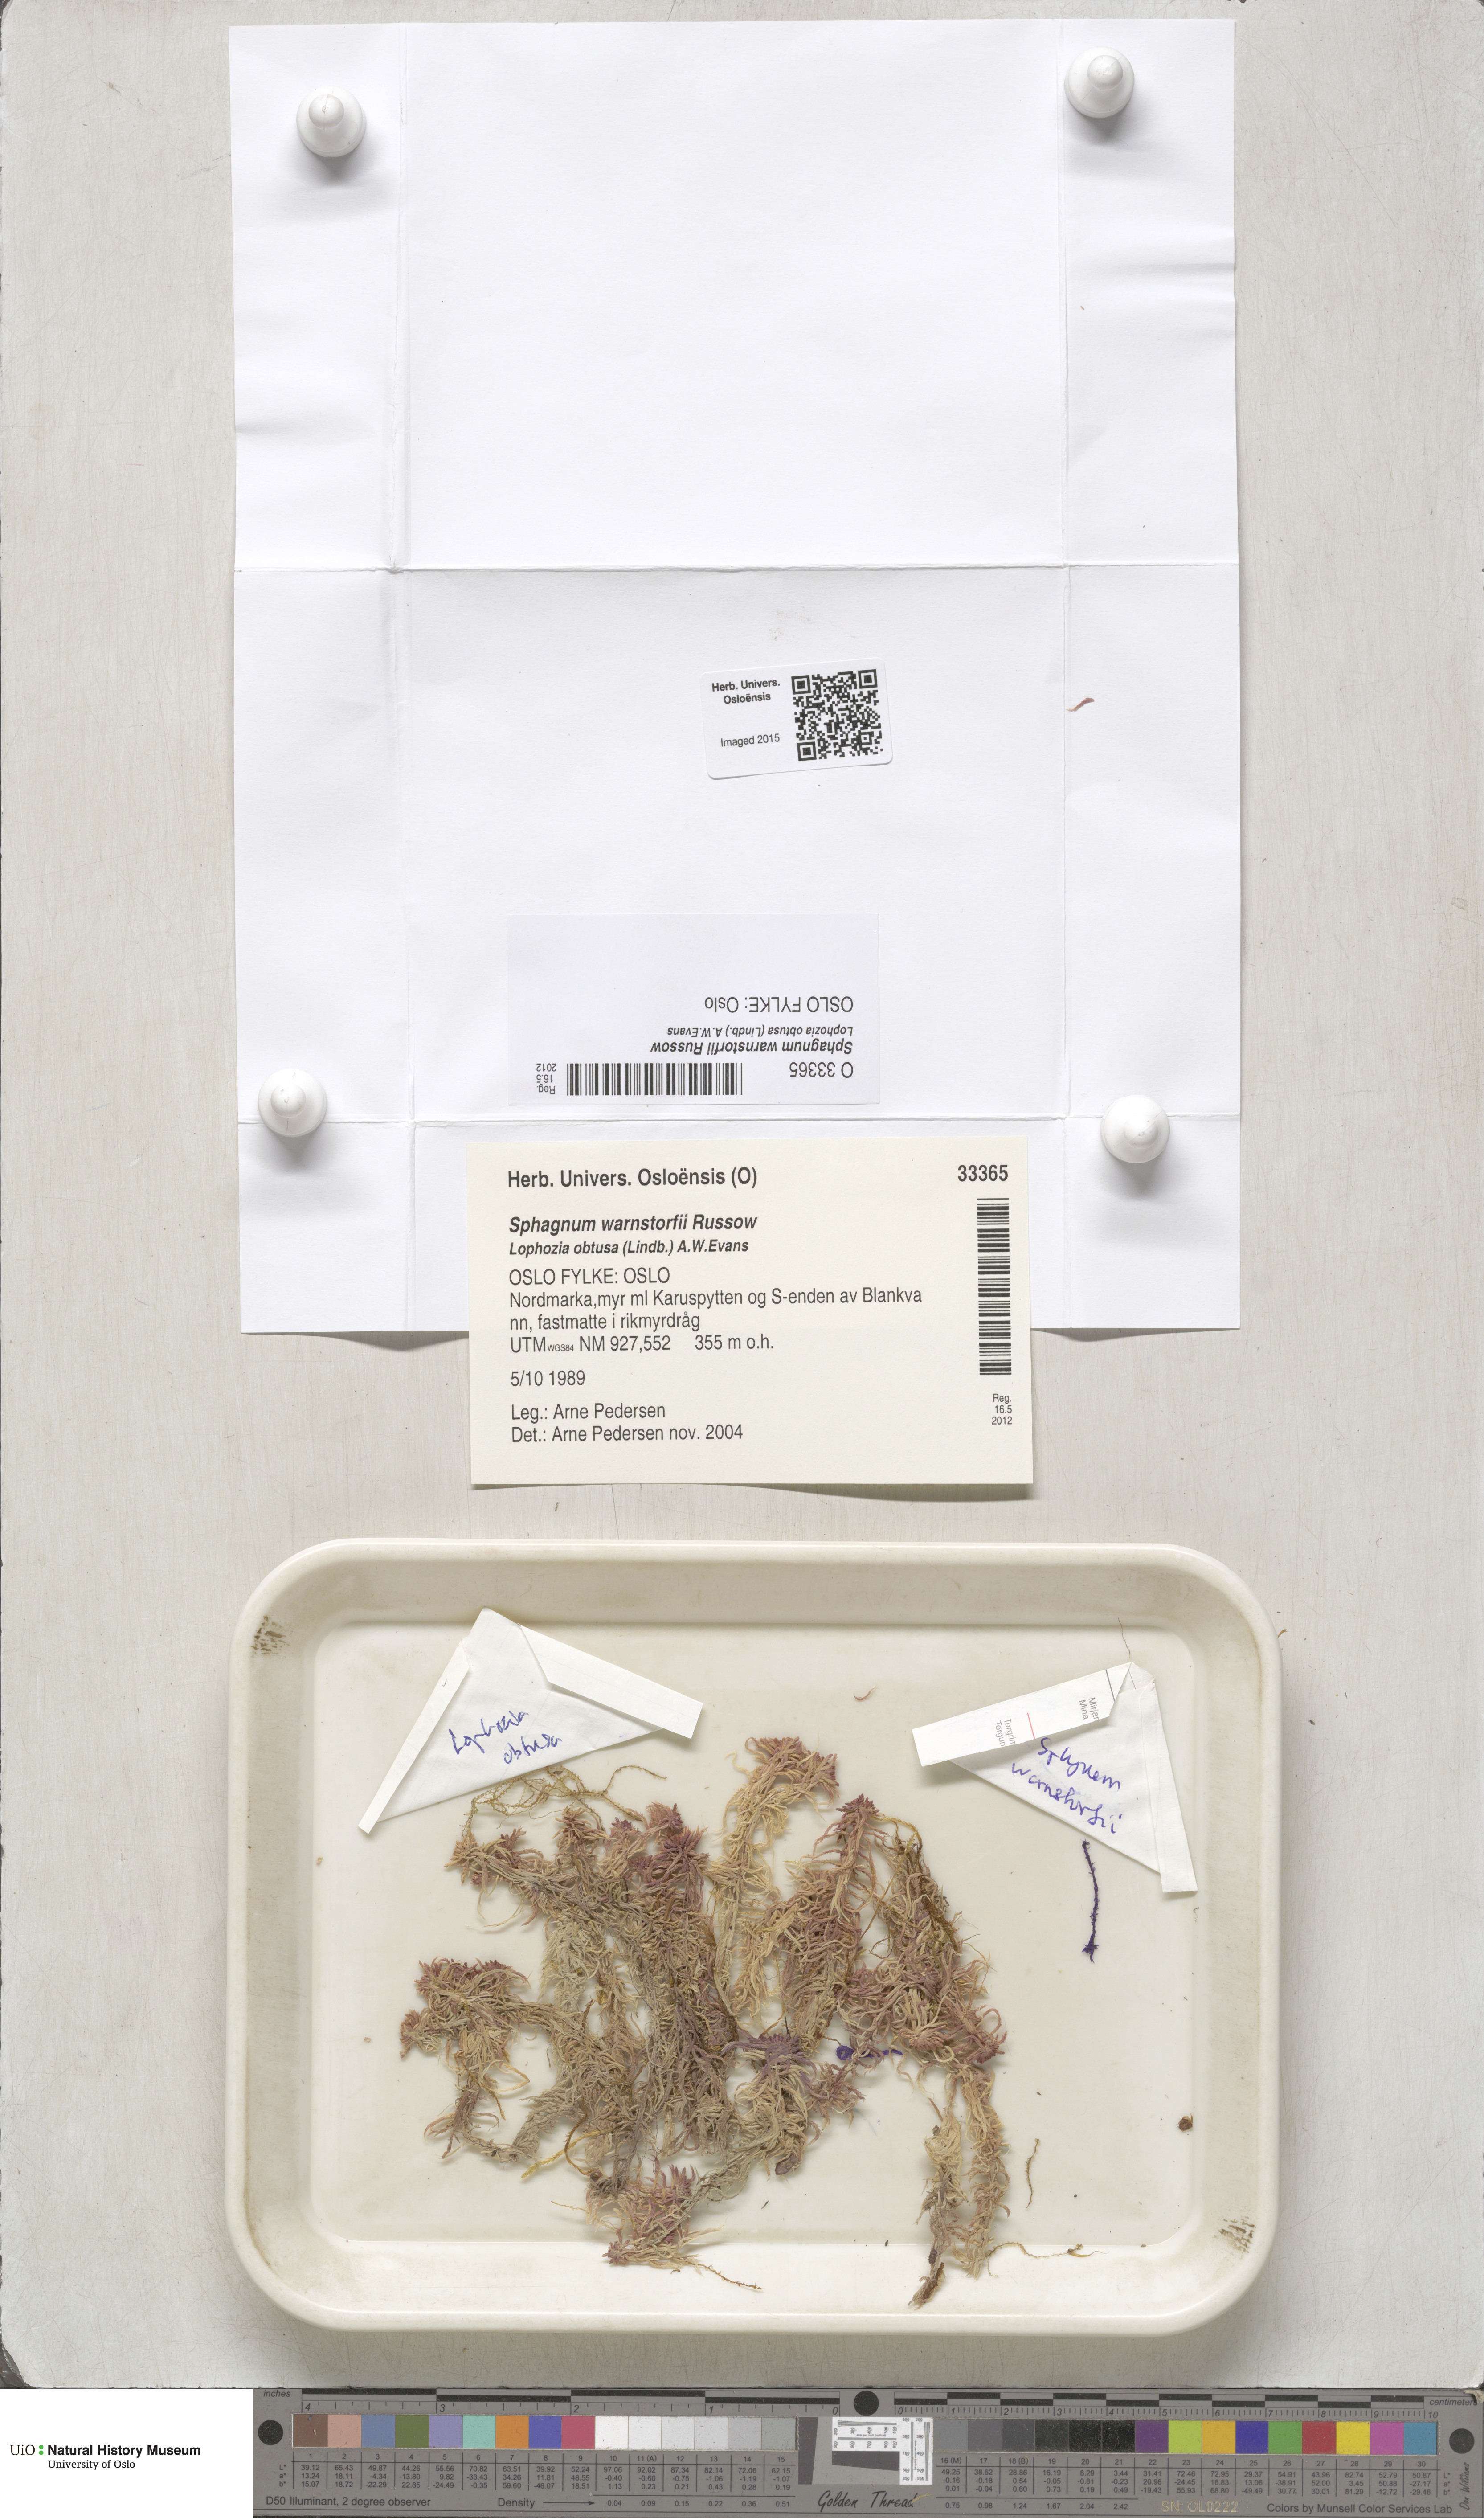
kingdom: Plantae
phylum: Bryophyta
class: Sphagnopsida
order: Sphagnales
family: Sphagnaceae
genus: Sphagnum
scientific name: Sphagnum warnstorfii
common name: Warnstorf's peat moss
